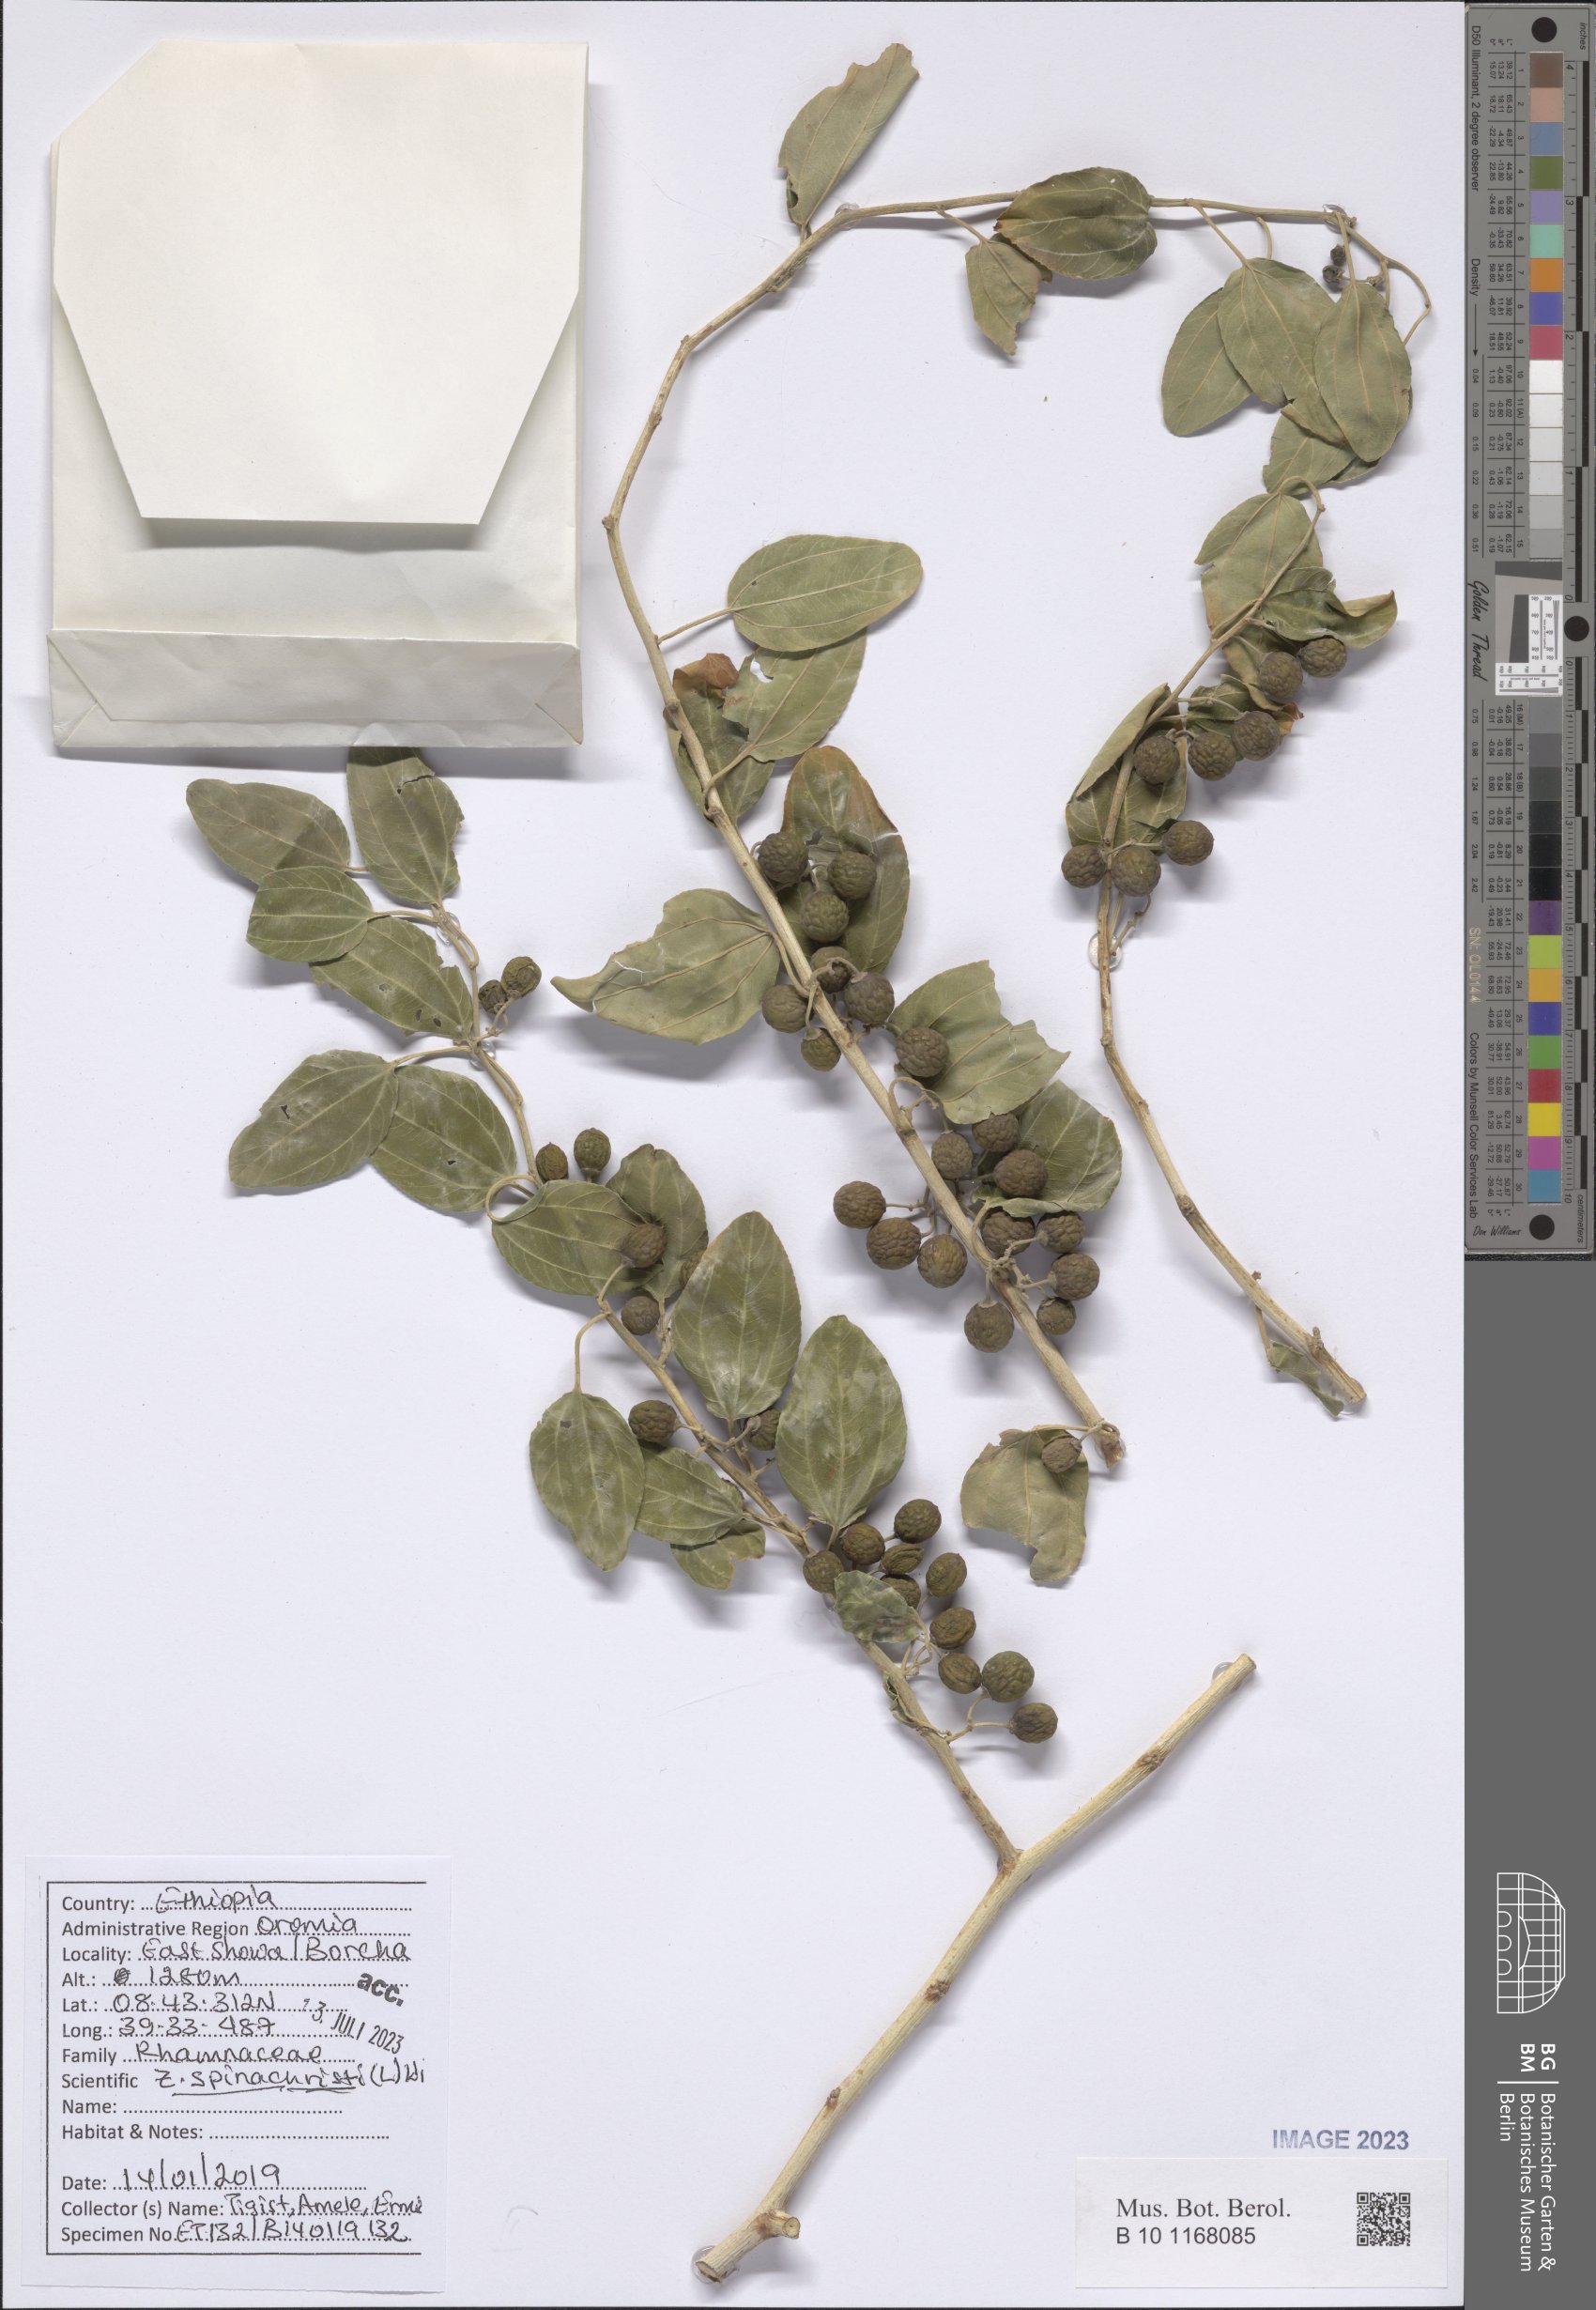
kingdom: Plantae
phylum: Tracheophyta
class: Magnoliopsida
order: Rosales
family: Rhamnaceae
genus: Ziziphus
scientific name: Ziziphus spina-christi
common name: Syrian christ-thorn
